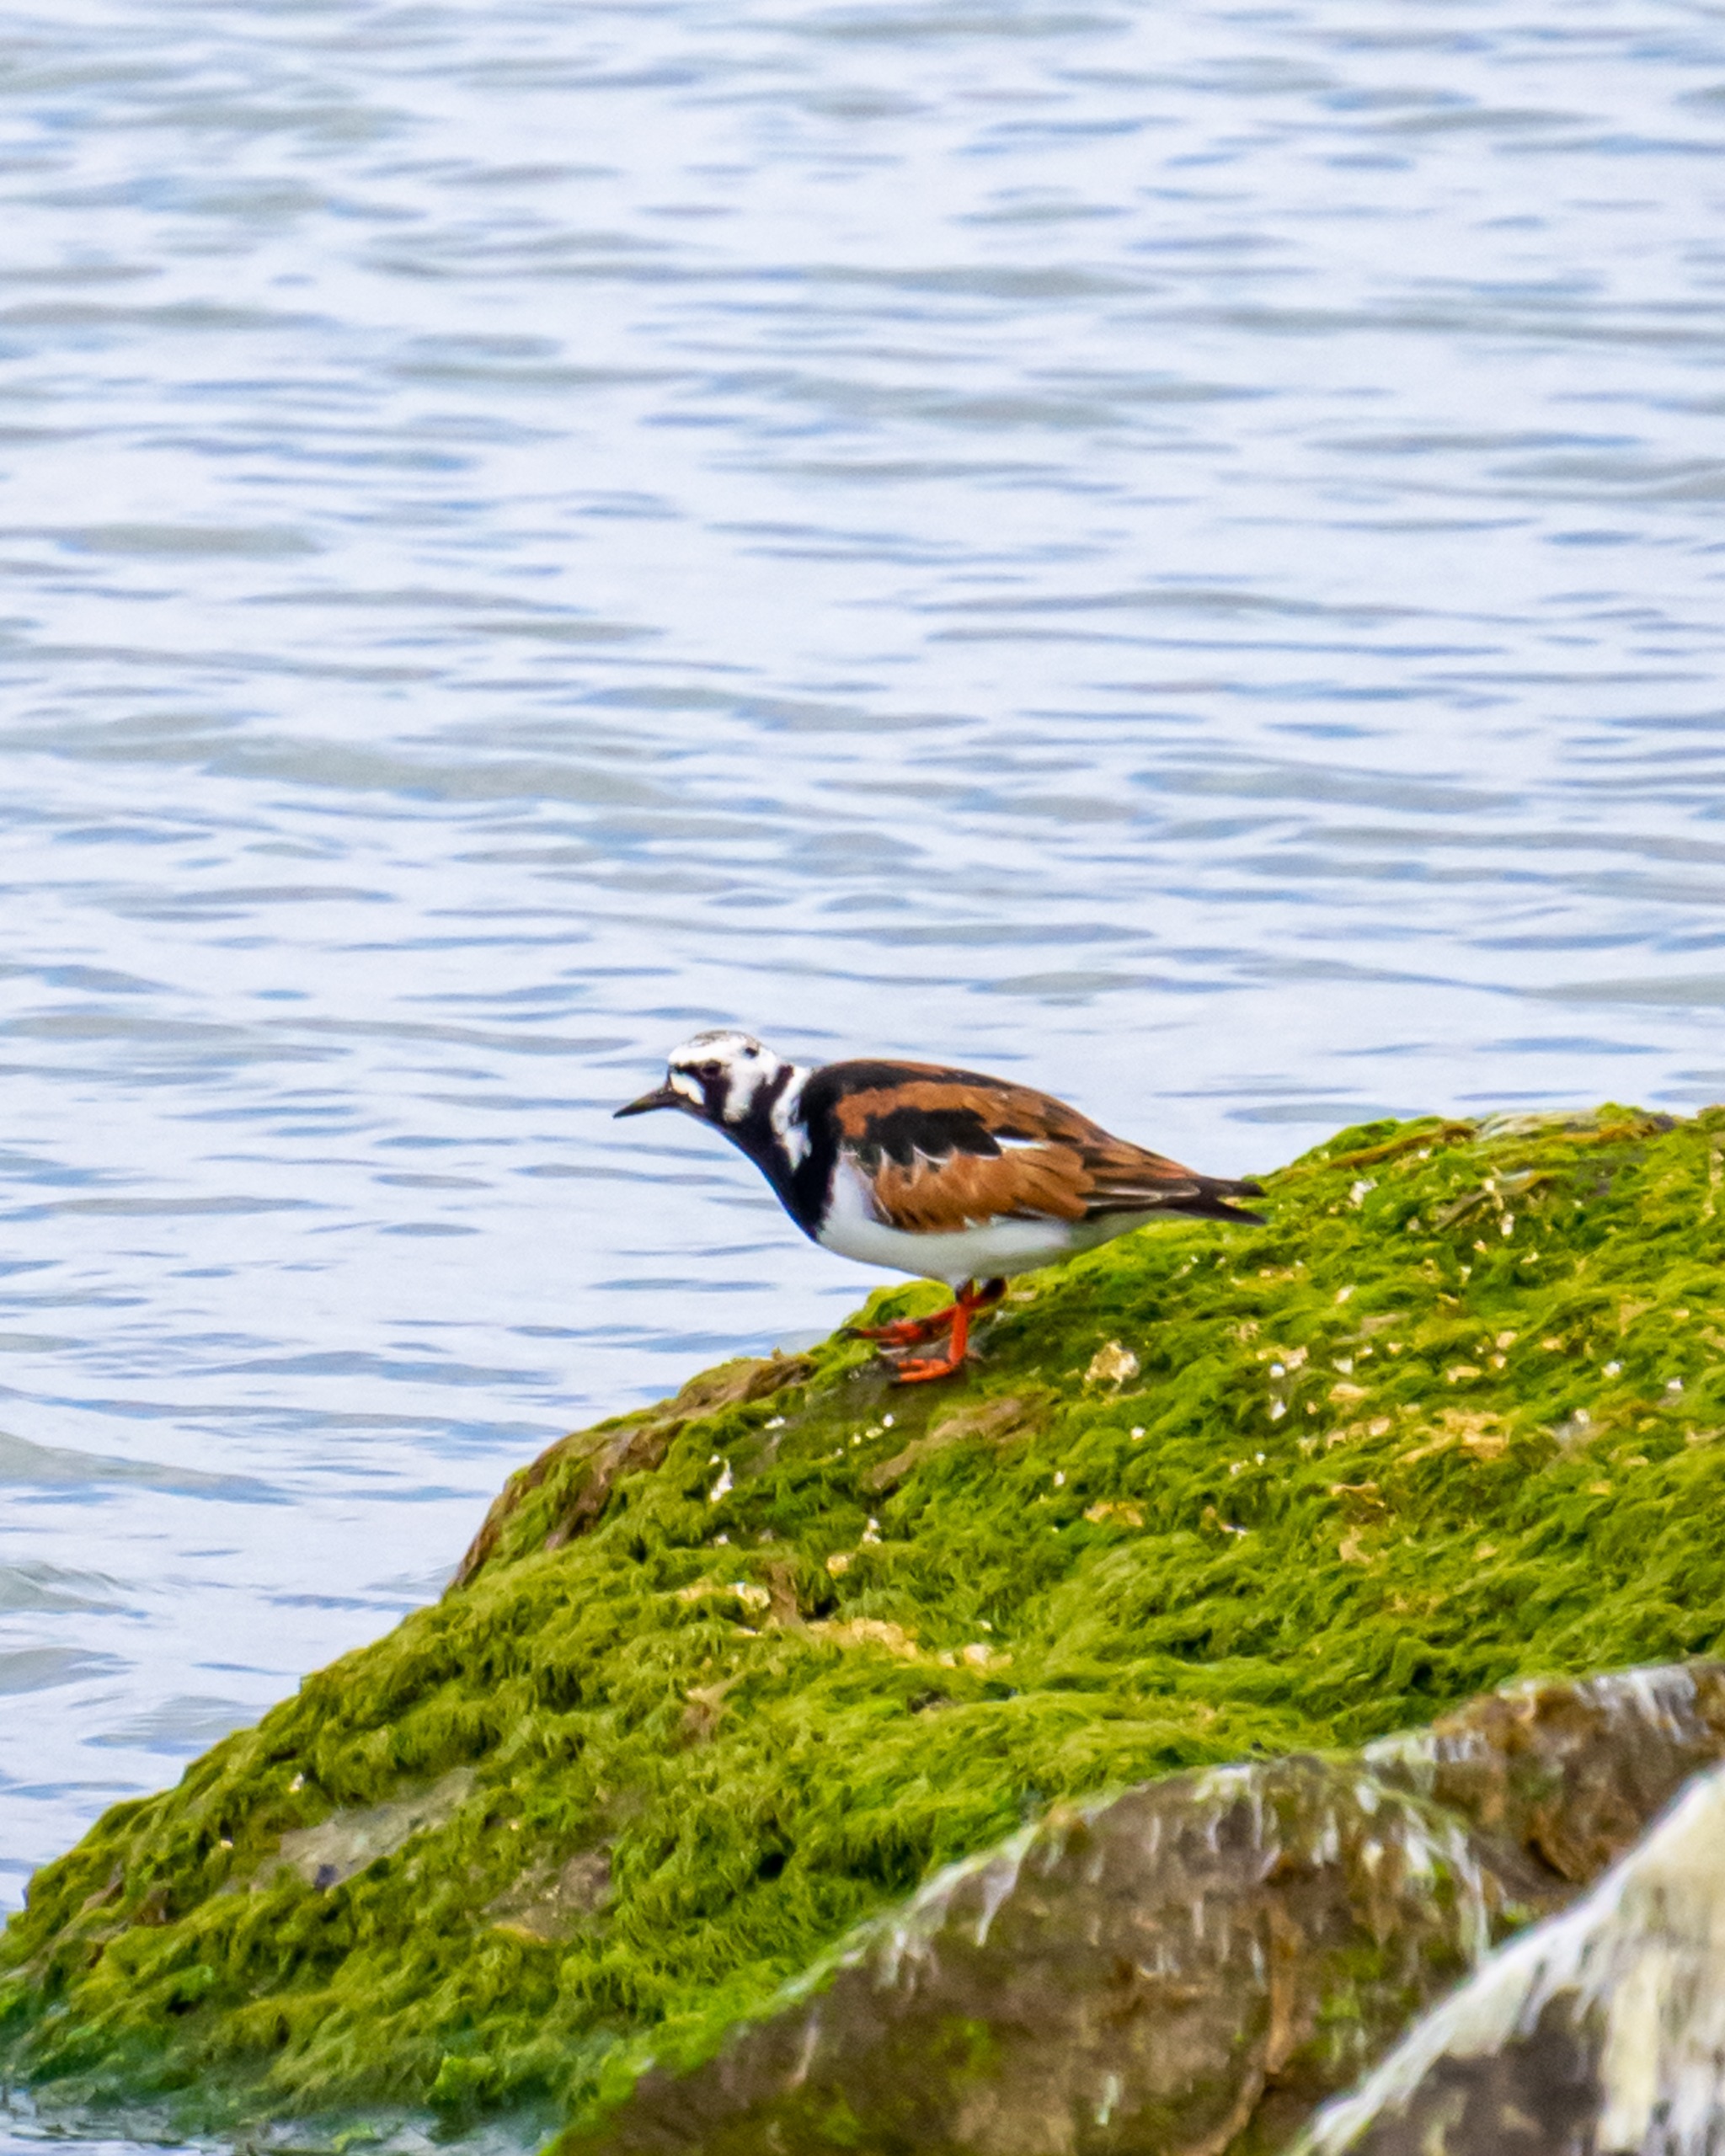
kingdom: Animalia
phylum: Chordata
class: Aves
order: Charadriiformes
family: Scolopacidae
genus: Arenaria
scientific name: Arenaria interpres
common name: Stenvender
